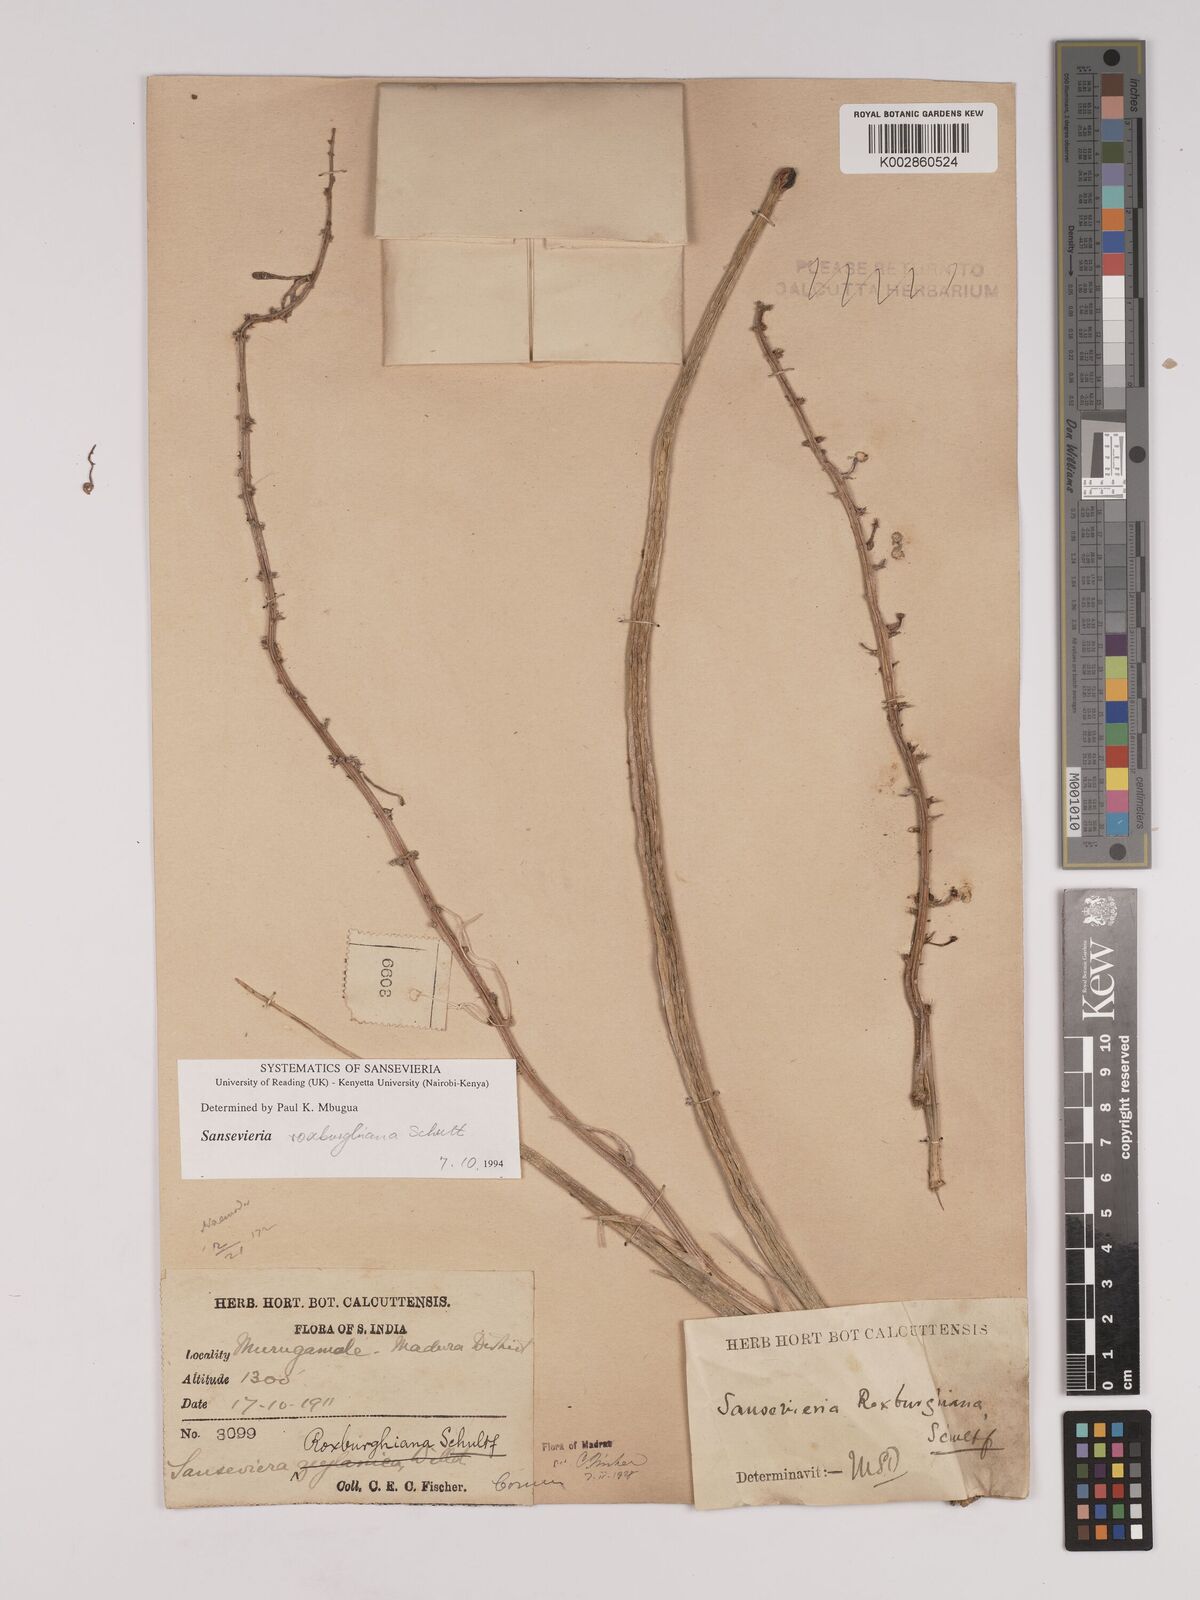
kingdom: Plantae
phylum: Tracheophyta
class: Liliopsida
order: Asparagales
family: Asparagaceae
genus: Dracaena
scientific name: Dracaena roxburghiana
